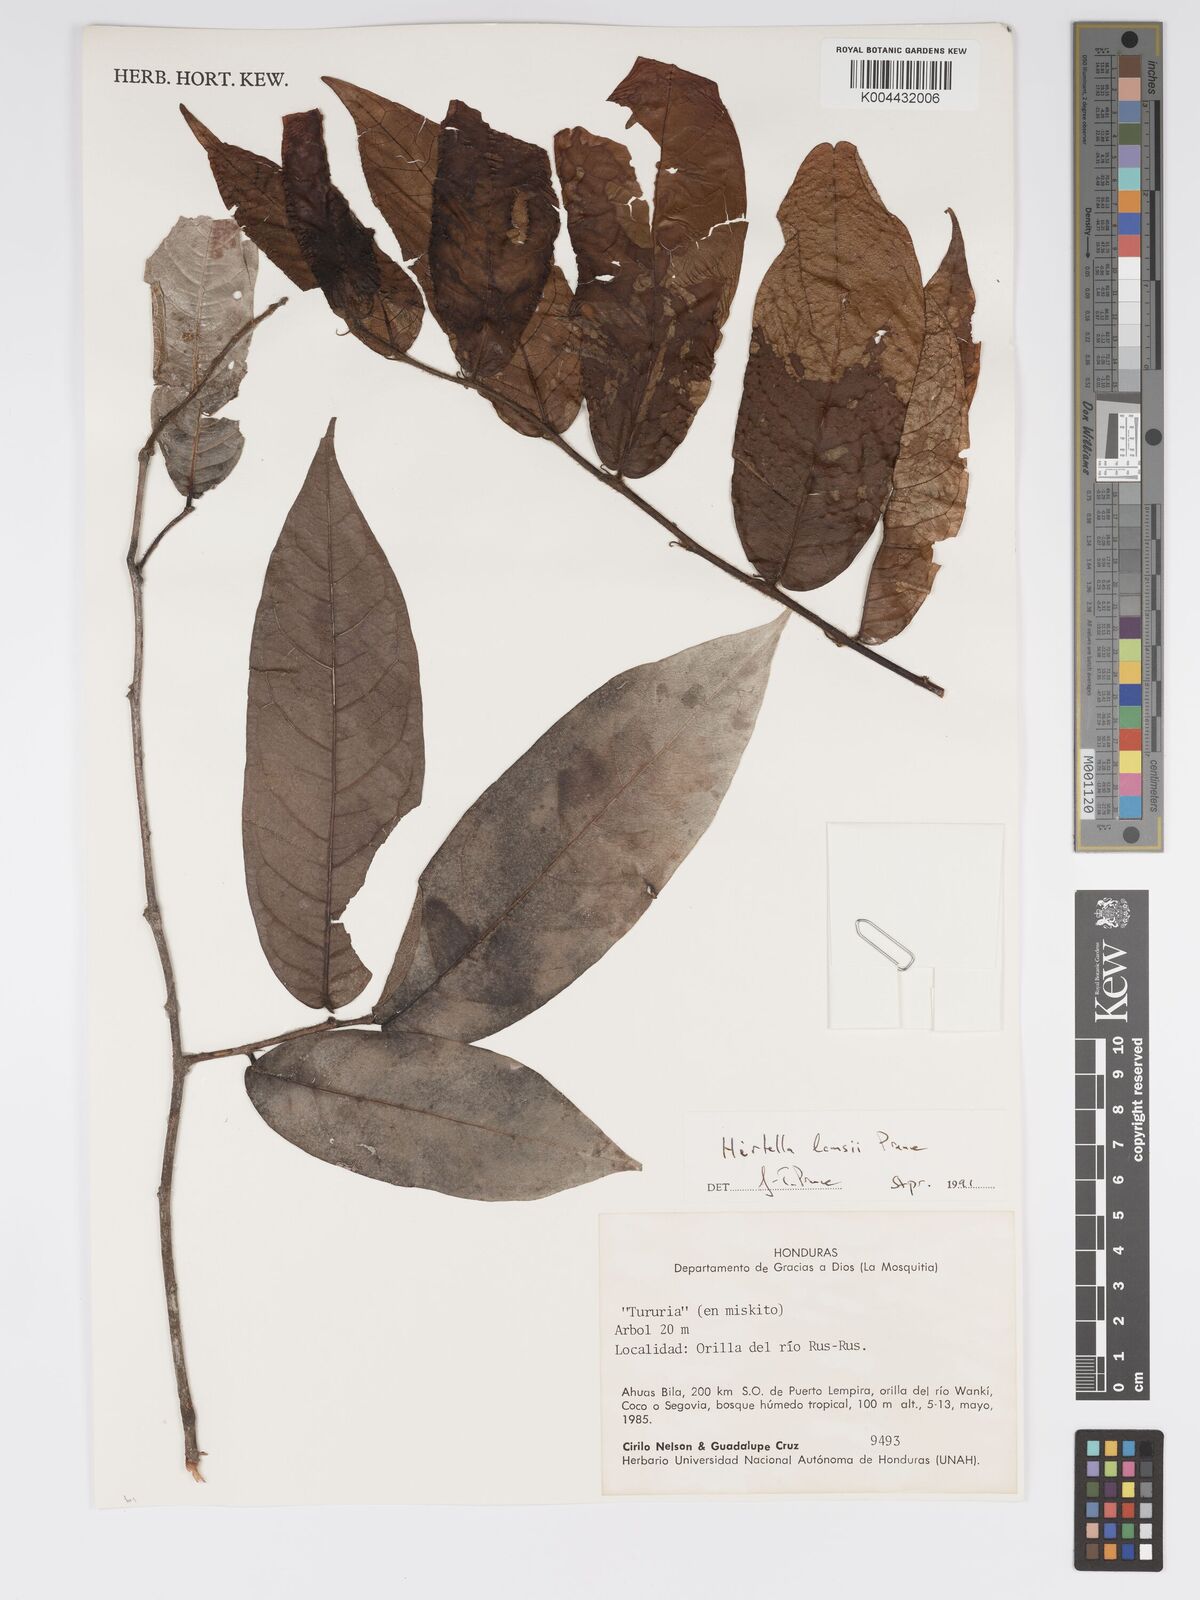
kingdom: Plantae
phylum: Tracheophyta
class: Magnoliopsida
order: Malpighiales
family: Chrysobalanaceae
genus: Hirtella
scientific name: Hirtella lemsii
